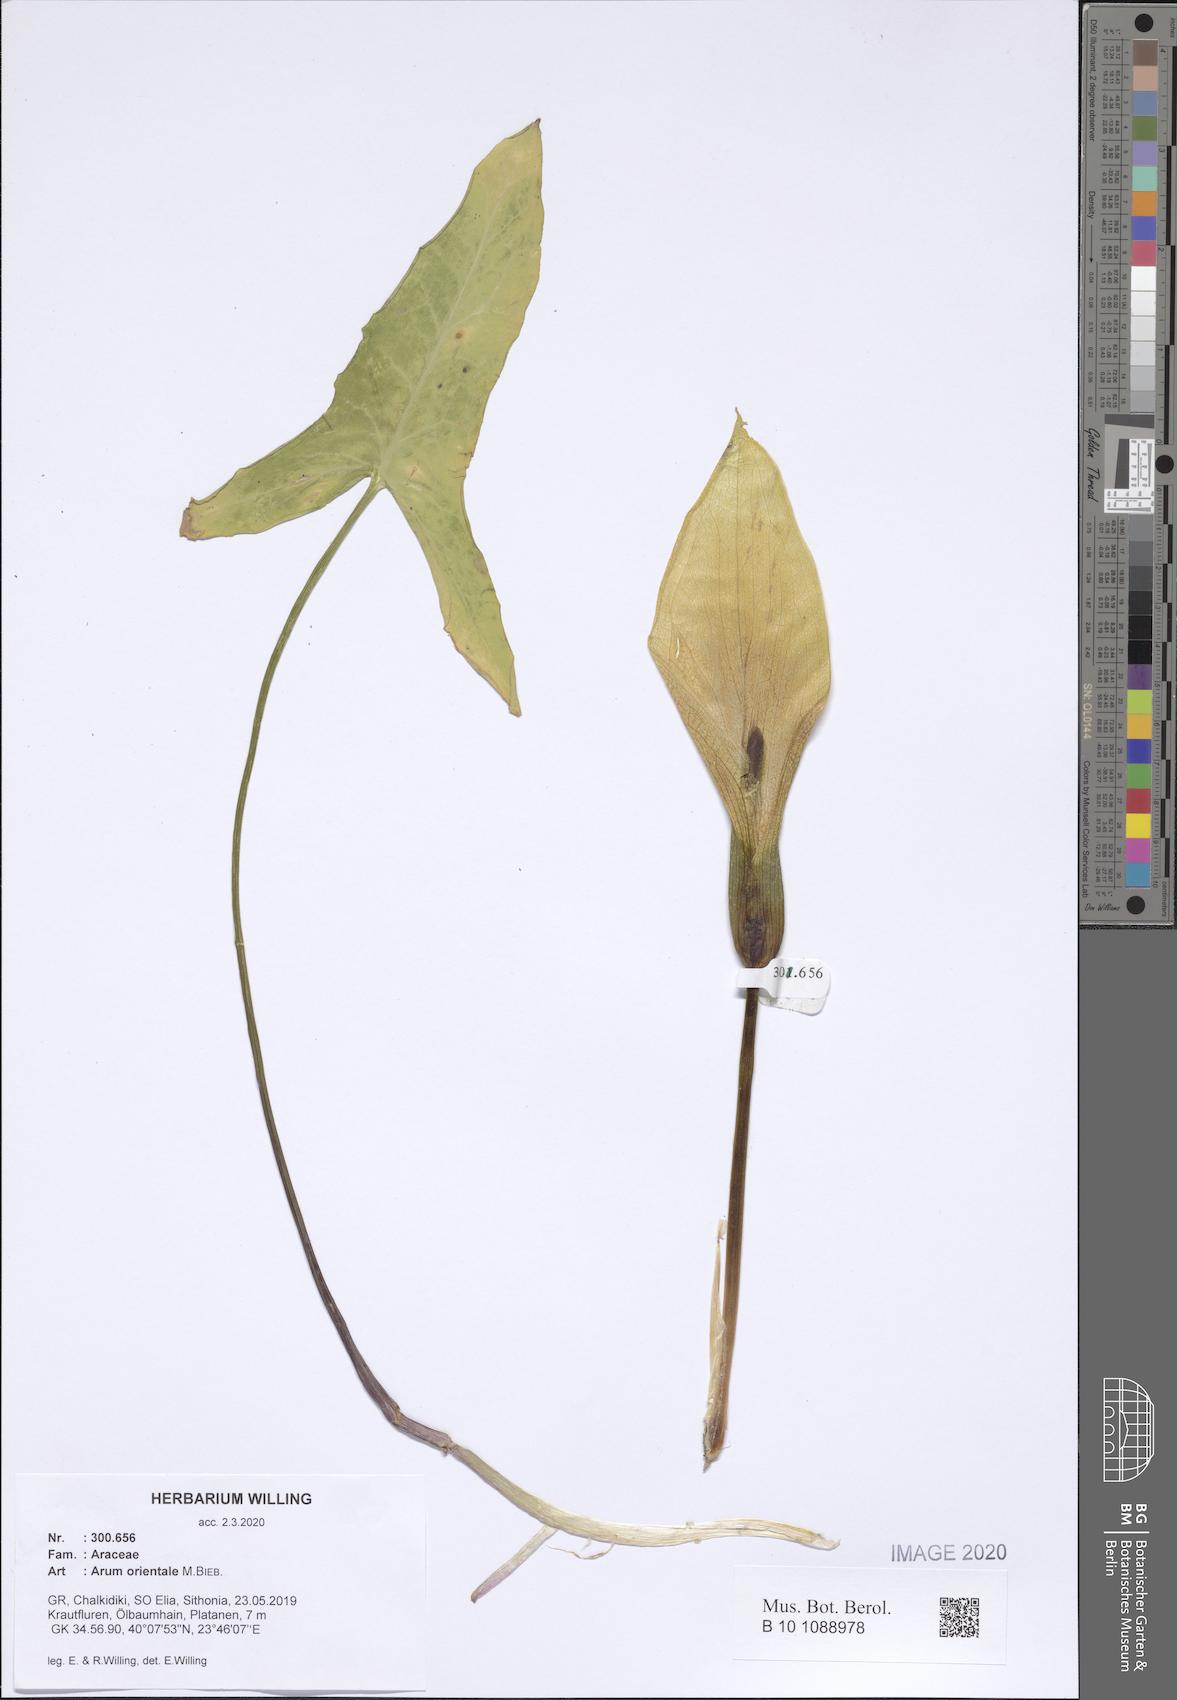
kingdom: Plantae
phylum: Tracheophyta
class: Liliopsida
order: Alismatales
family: Araceae
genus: Arum
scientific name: Arum orientale
